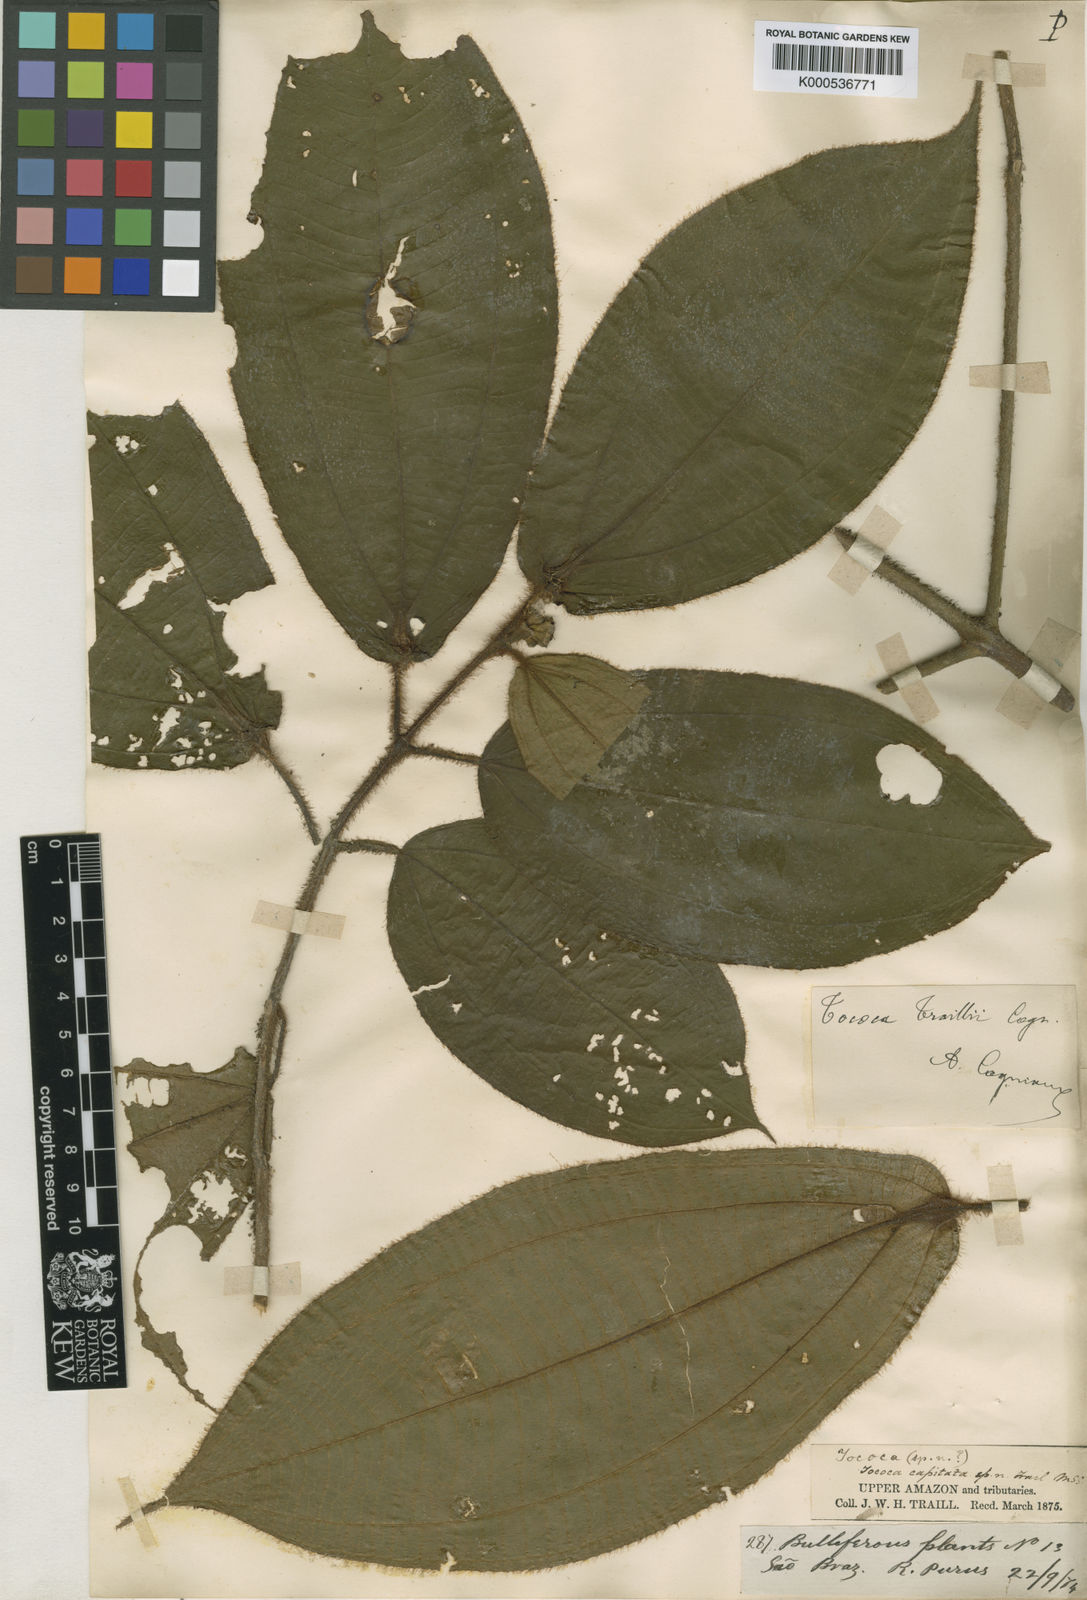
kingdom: Plantae
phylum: Tracheophyta
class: Magnoliopsida
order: Myrtales
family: Melastomataceae
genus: Miconia
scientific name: Miconia tococoronata
